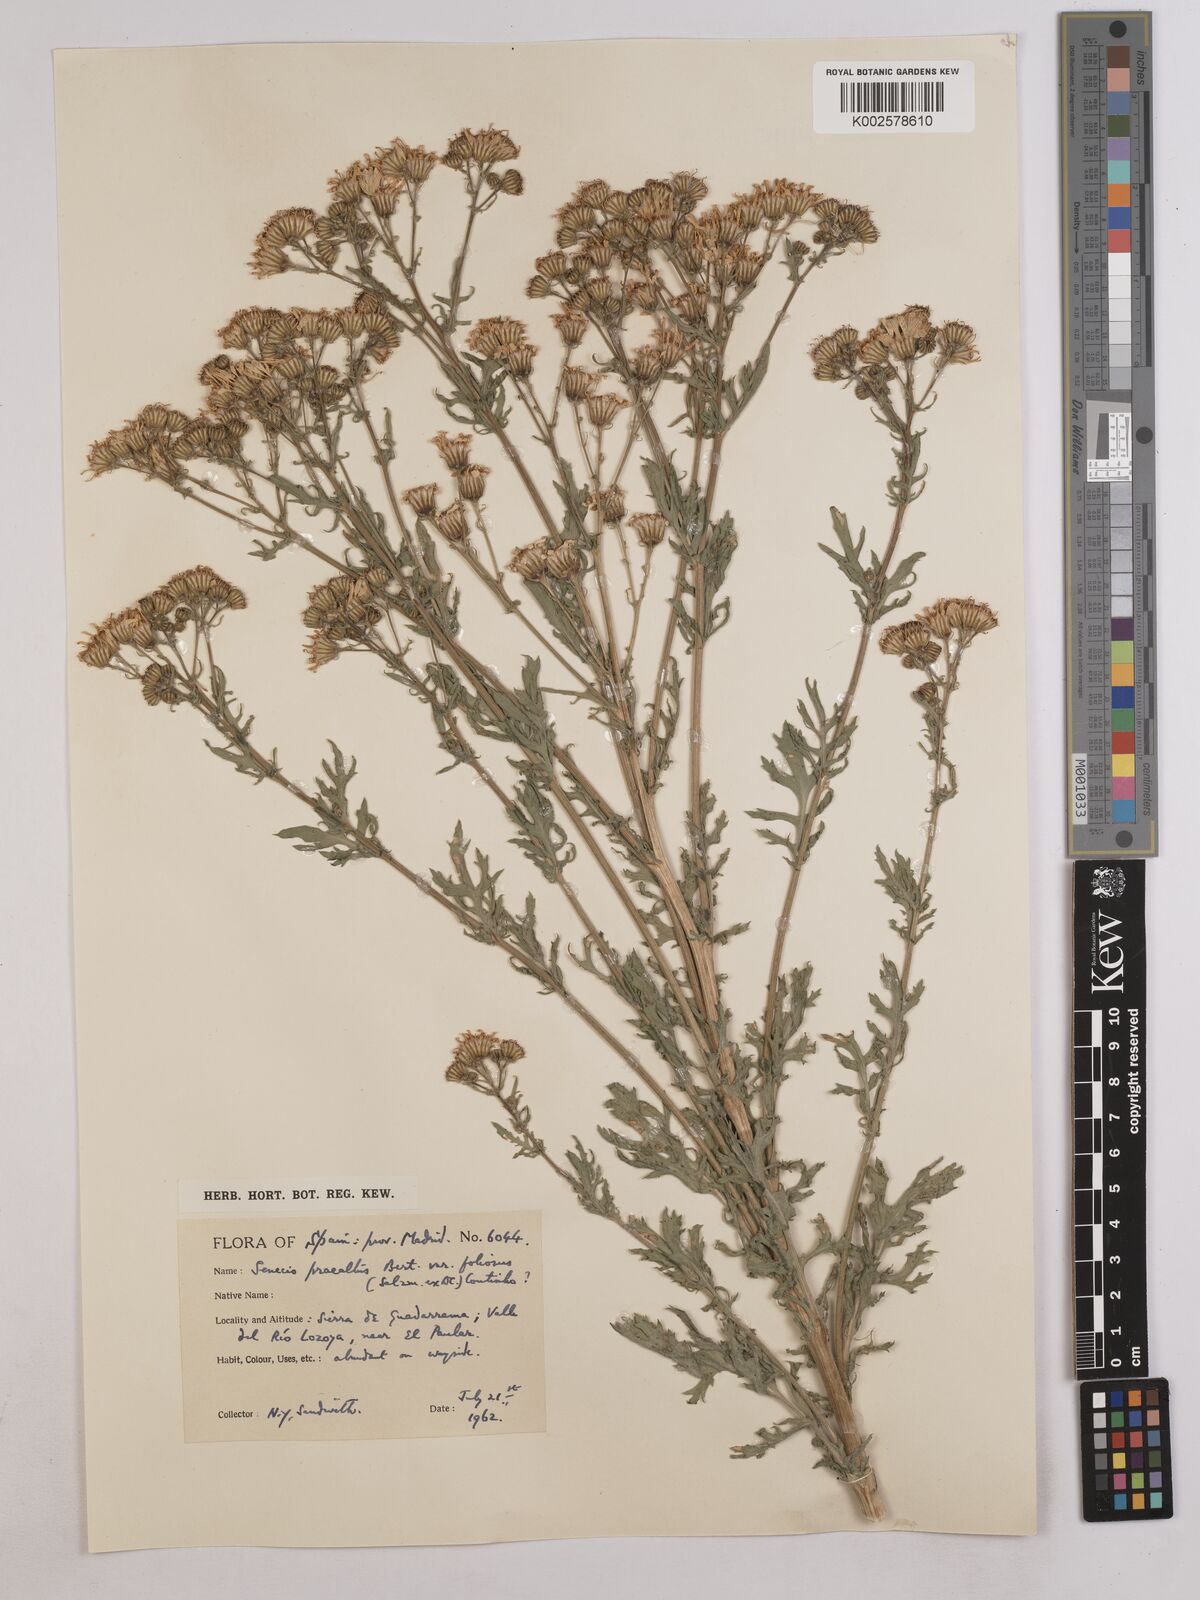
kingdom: Plantae
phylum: Tracheophyta
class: Magnoliopsida
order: Asterales
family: Asteraceae
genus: Jacobaea
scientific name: Jacobaea vulgaris
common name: Stinking willie
